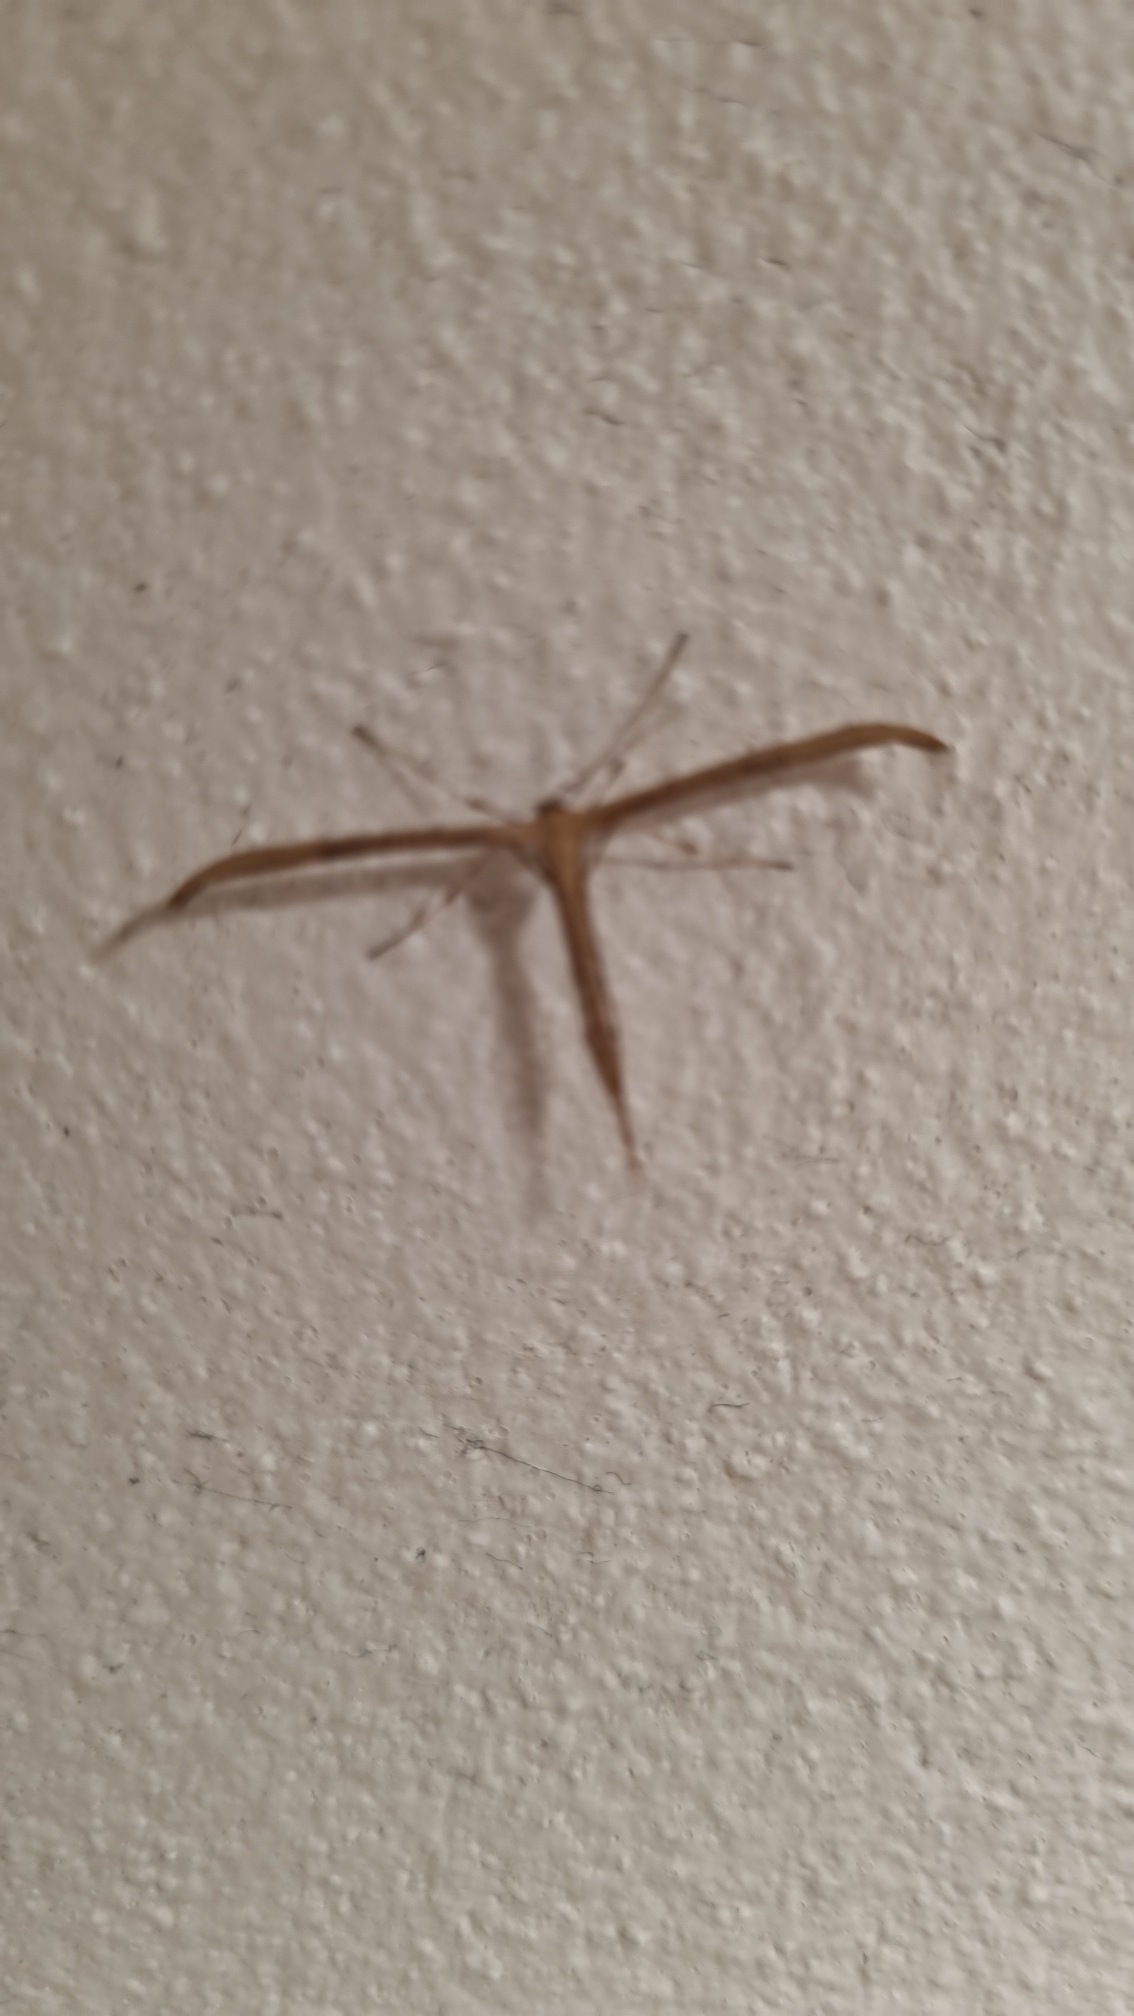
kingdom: Animalia
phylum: Arthropoda
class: Insecta
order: Lepidoptera
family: Pterophoridae
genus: Emmelina
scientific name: Emmelina monodactyla
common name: Snerlefjermøl
